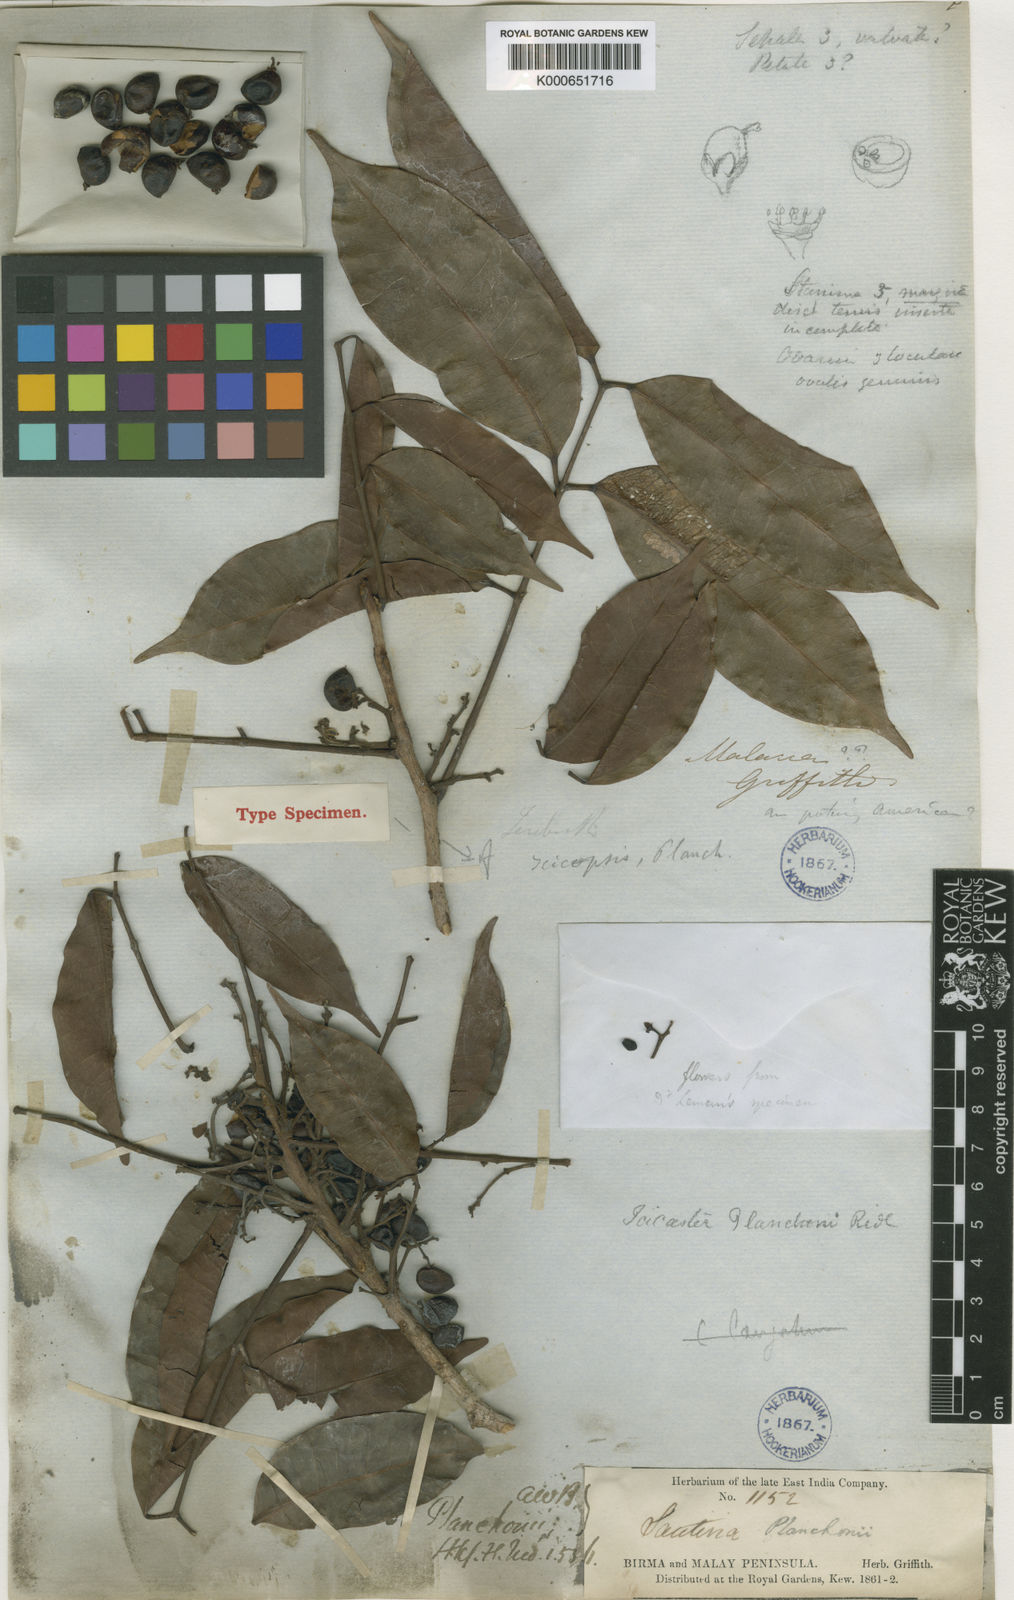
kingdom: Plantae
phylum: Tracheophyta
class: Magnoliopsida
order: Sapindales
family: Burseraceae
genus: Santiria
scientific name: Santiria
